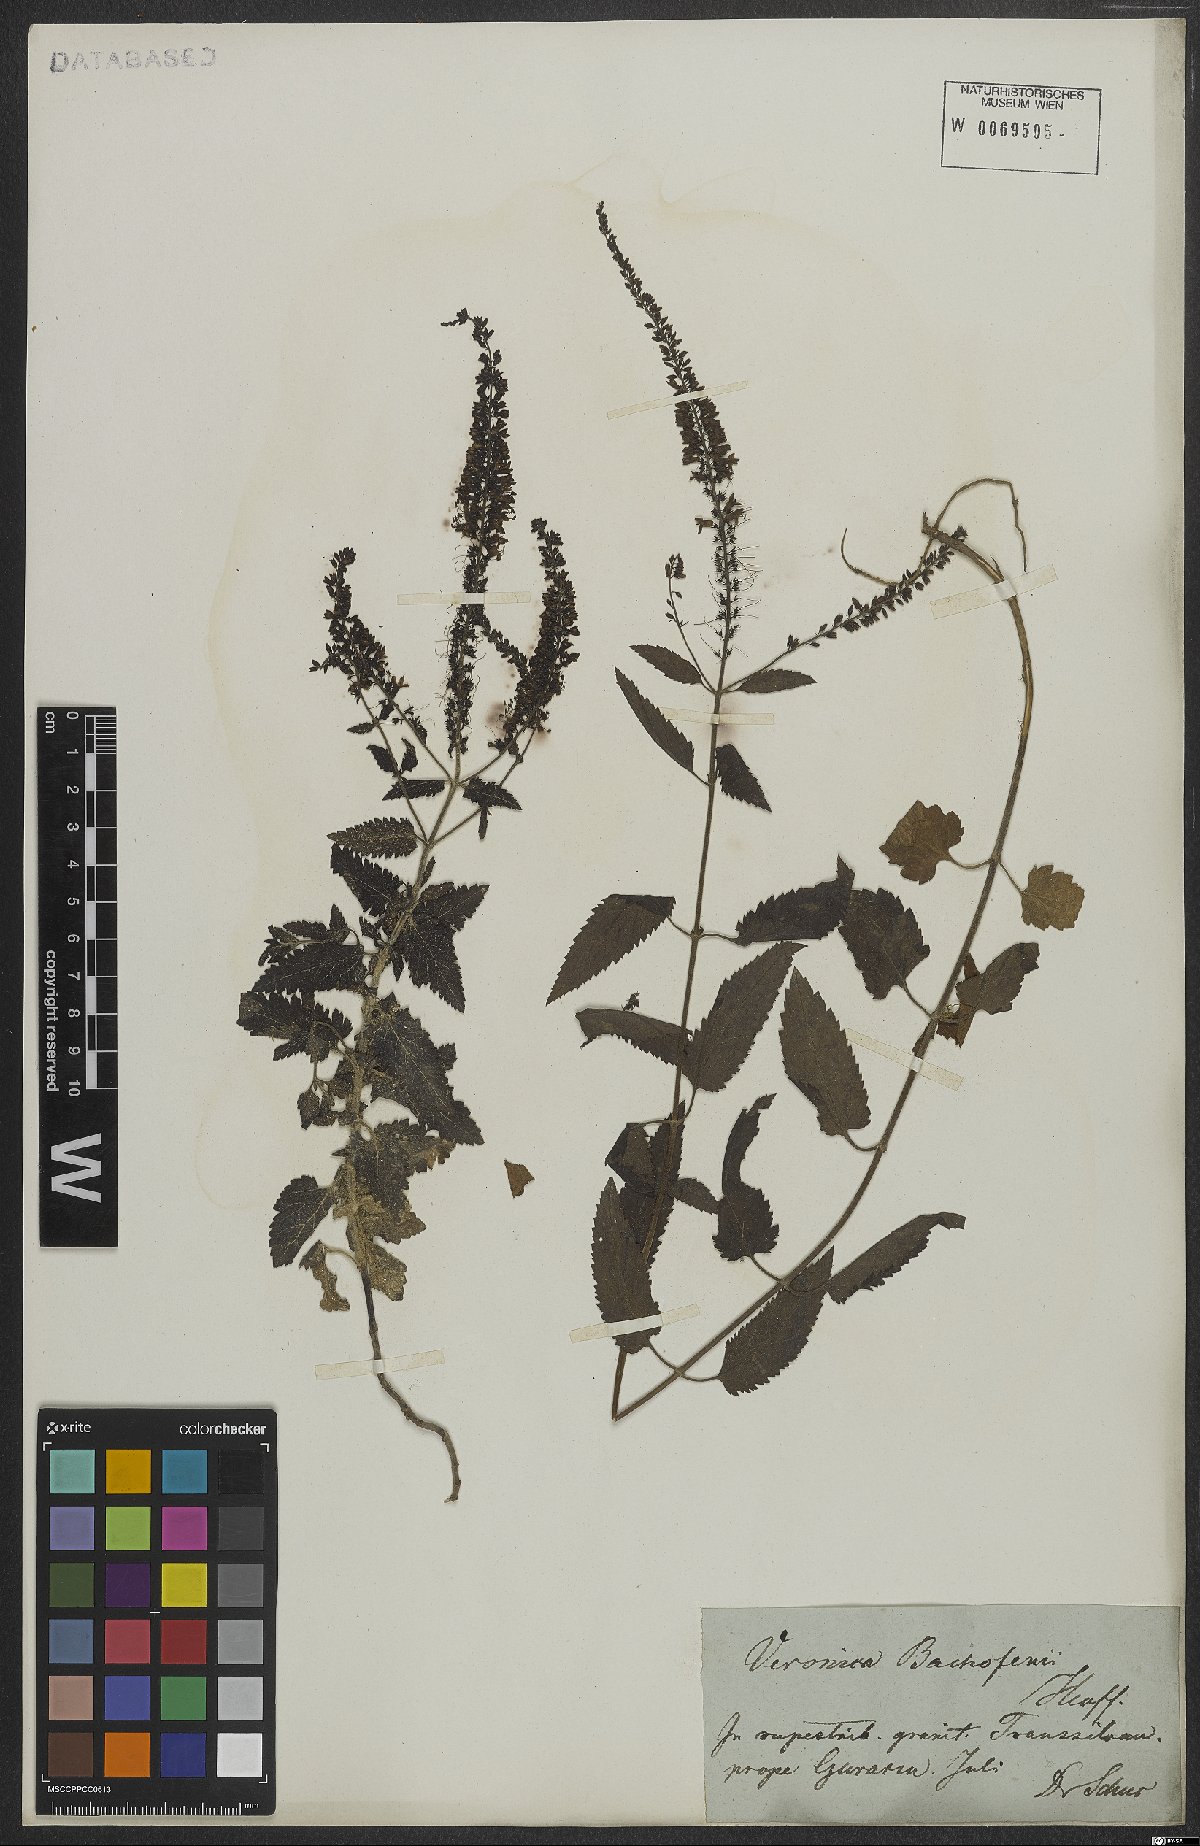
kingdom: Plantae
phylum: Tracheophyta
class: Magnoliopsida
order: Lamiales
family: Plantaginaceae
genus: Veronica
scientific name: Veronica bachofenii
